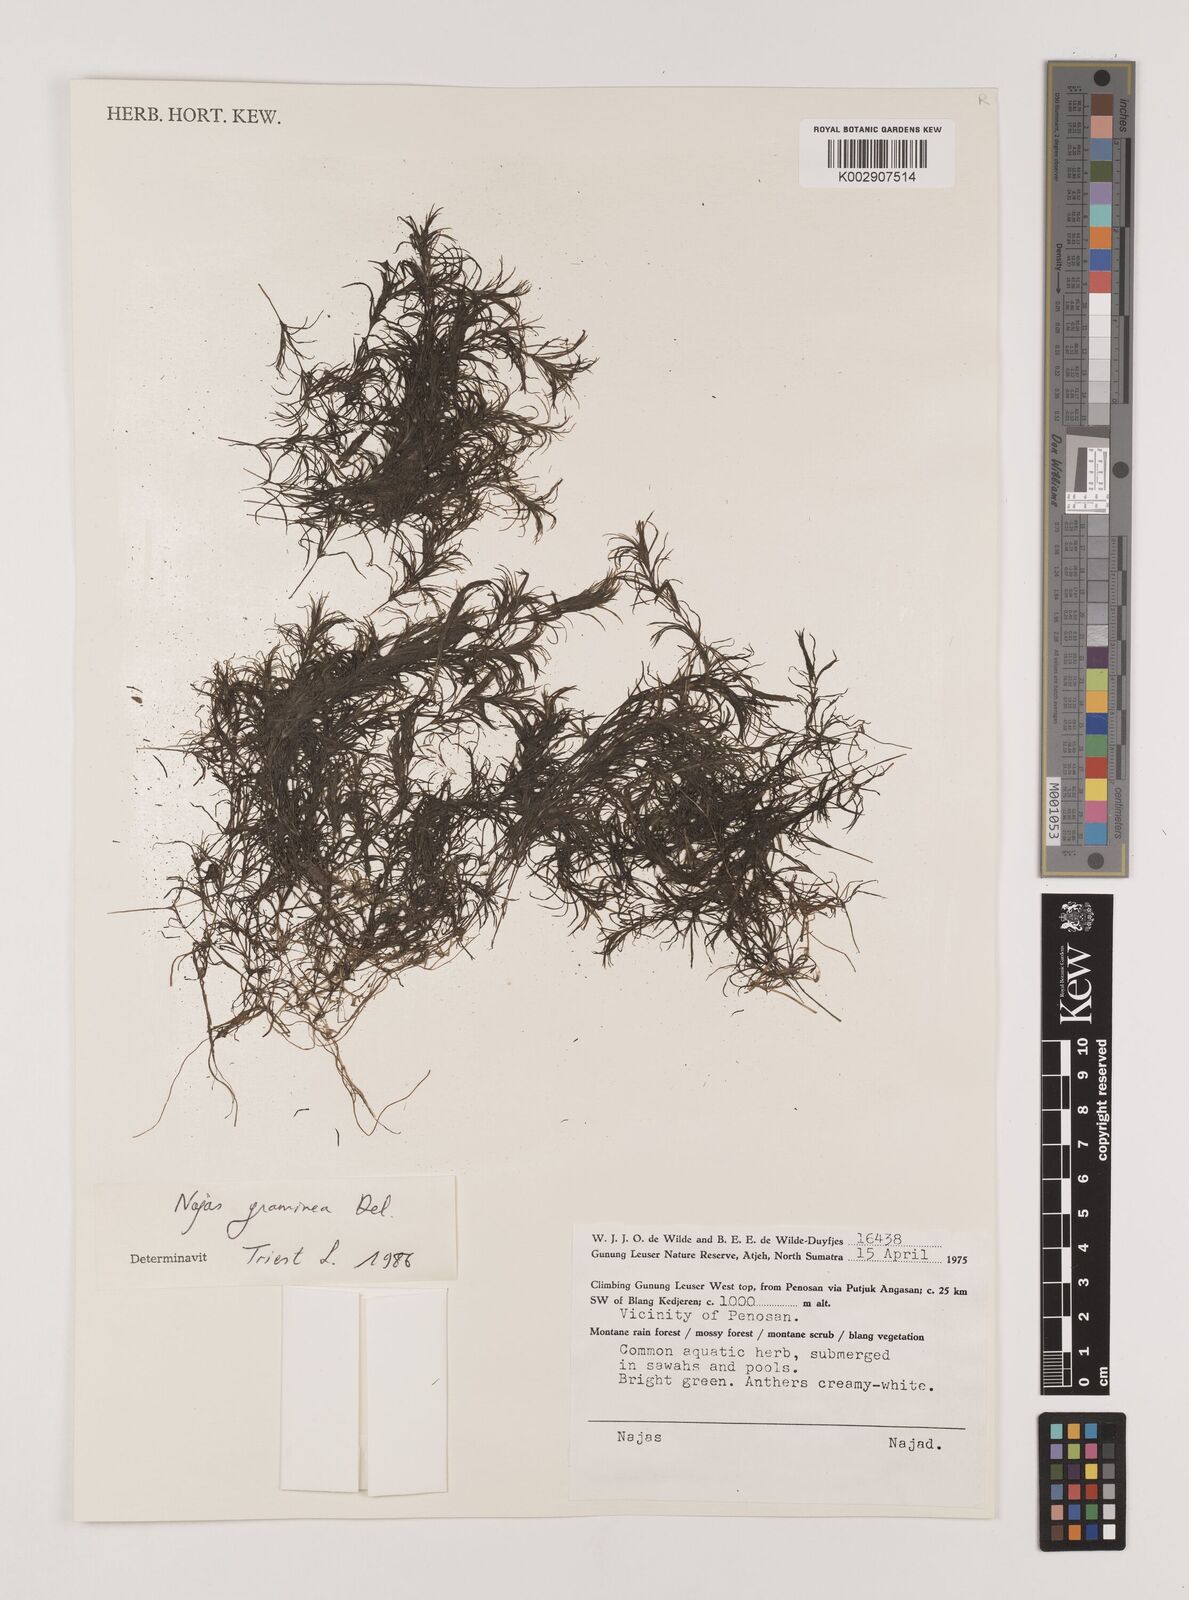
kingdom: Plantae
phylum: Tracheophyta
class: Liliopsida
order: Alismatales
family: Hydrocharitaceae
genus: Najas
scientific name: Najas graminea
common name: Ricefield waternymph
